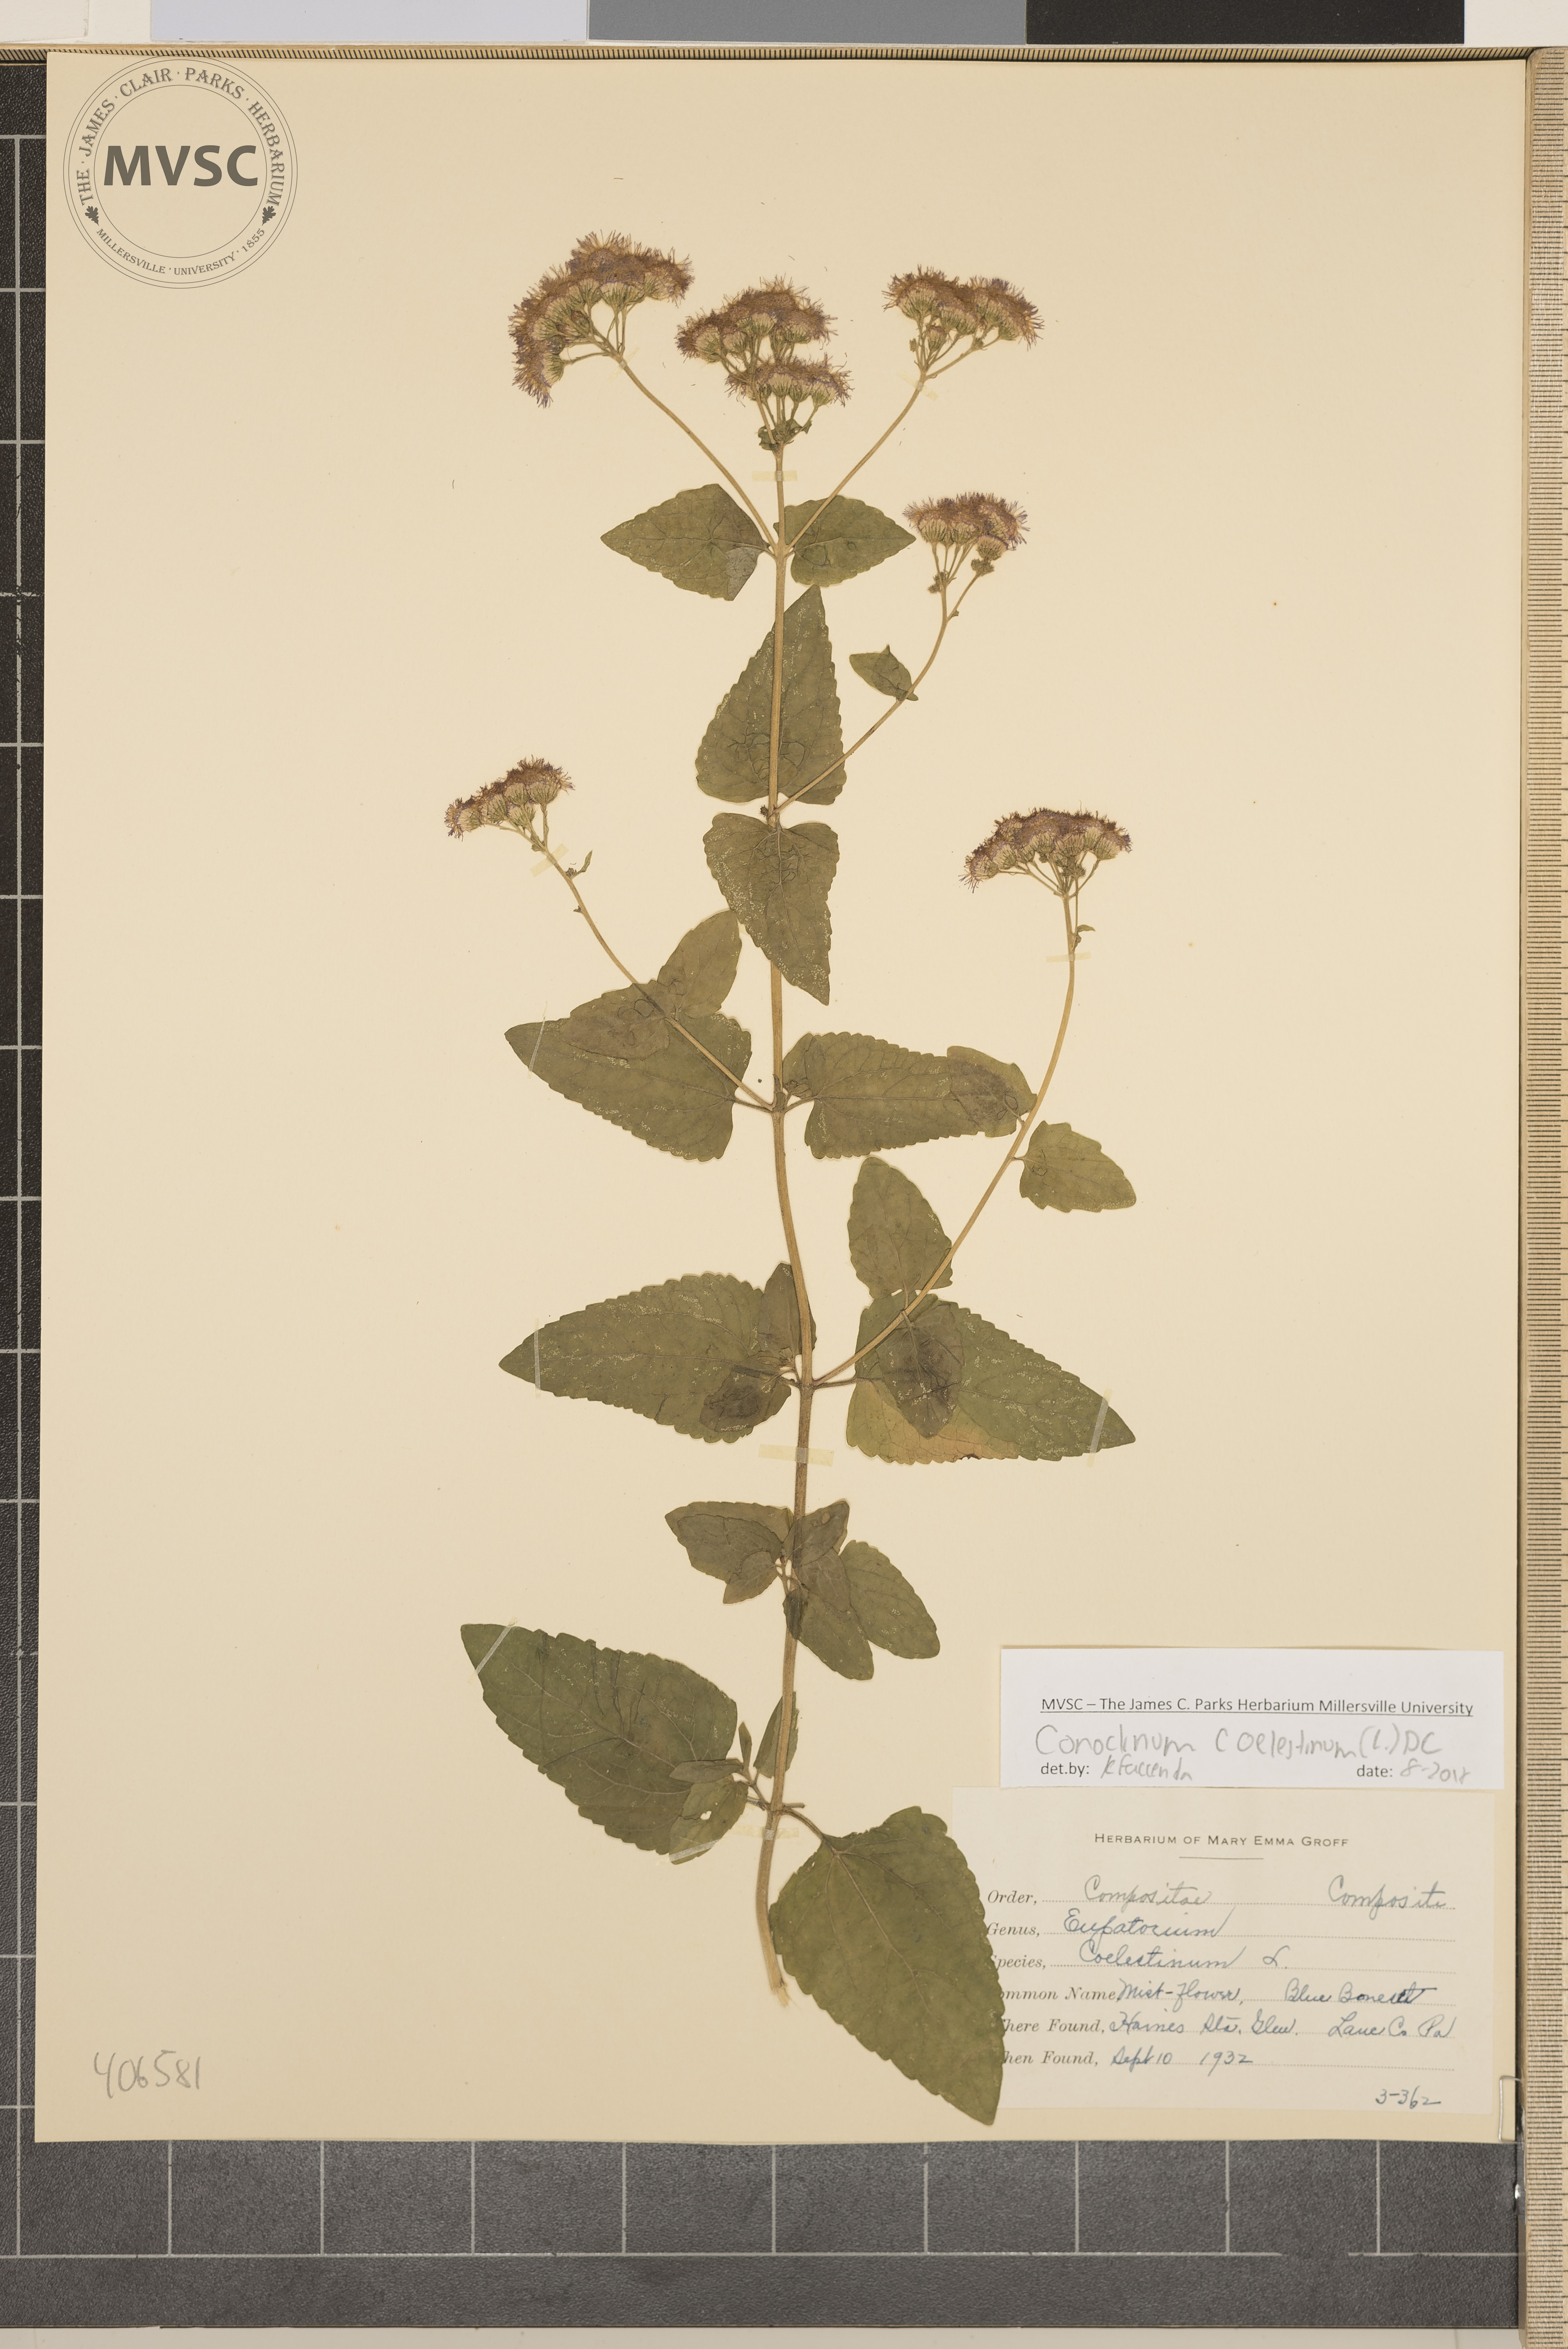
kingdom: Plantae
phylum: Tracheophyta
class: Magnoliopsida
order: Asterales
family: Asteraceae
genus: Conoclinium
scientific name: Conoclinium coelestinum
